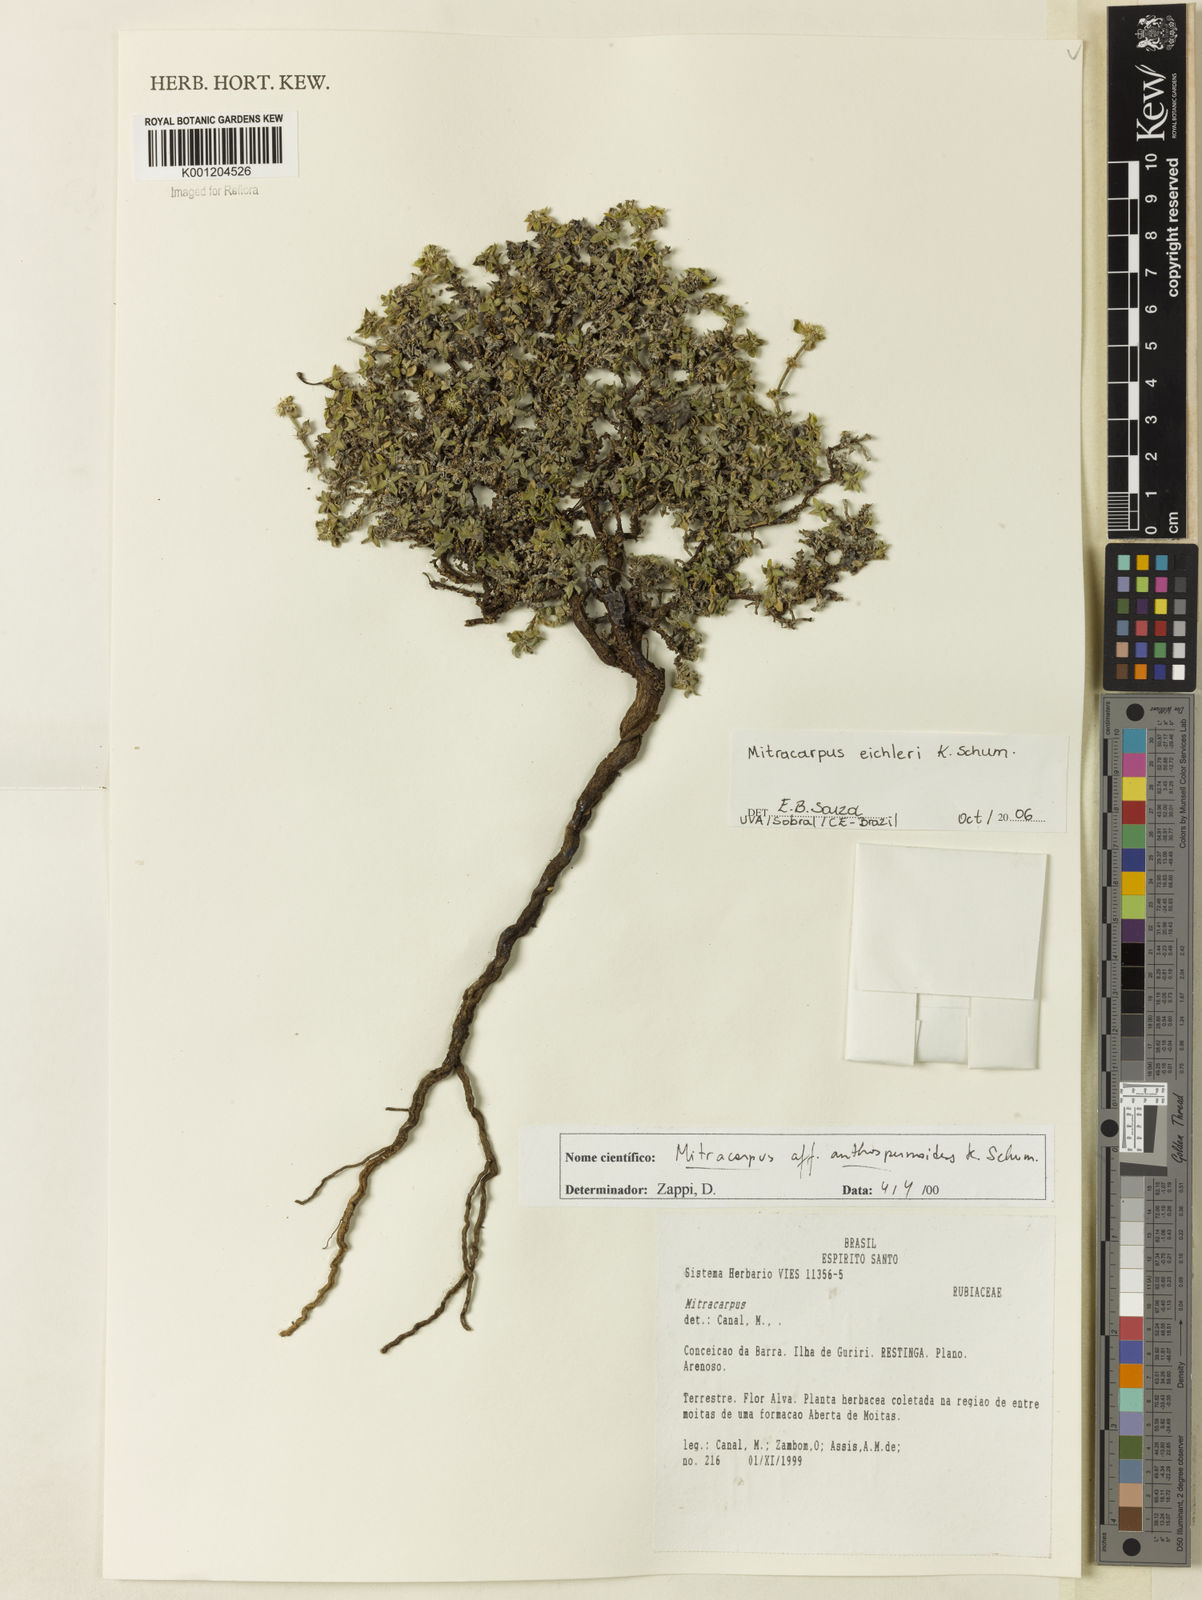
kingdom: Plantae
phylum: Tracheophyta
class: Magnoliopsida
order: Gentianales
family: Rubiaceae
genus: Mitracarpus
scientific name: Mitracarpus eichleri
